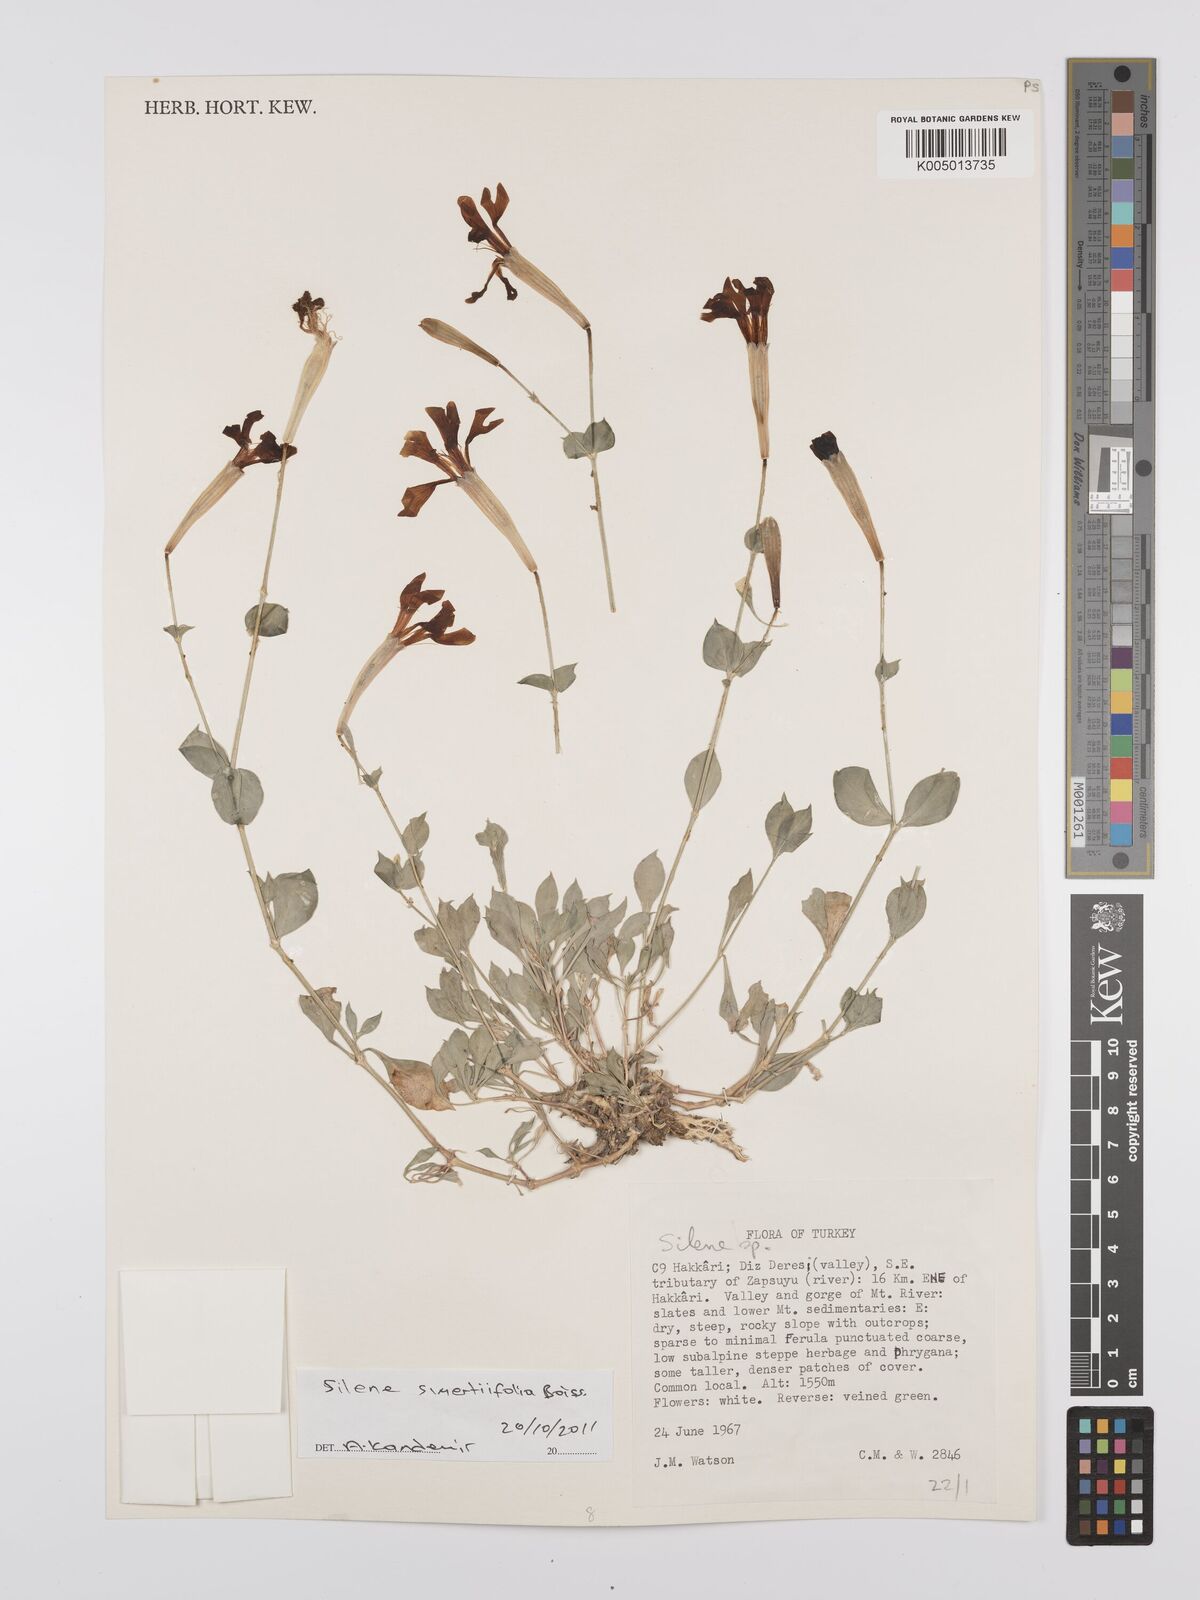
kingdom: Plantae
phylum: Tracheophyta
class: Magnoliopsida
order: Caryophyllales
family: Caryophyllaceae
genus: Silene
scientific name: Silene swertiifolia
